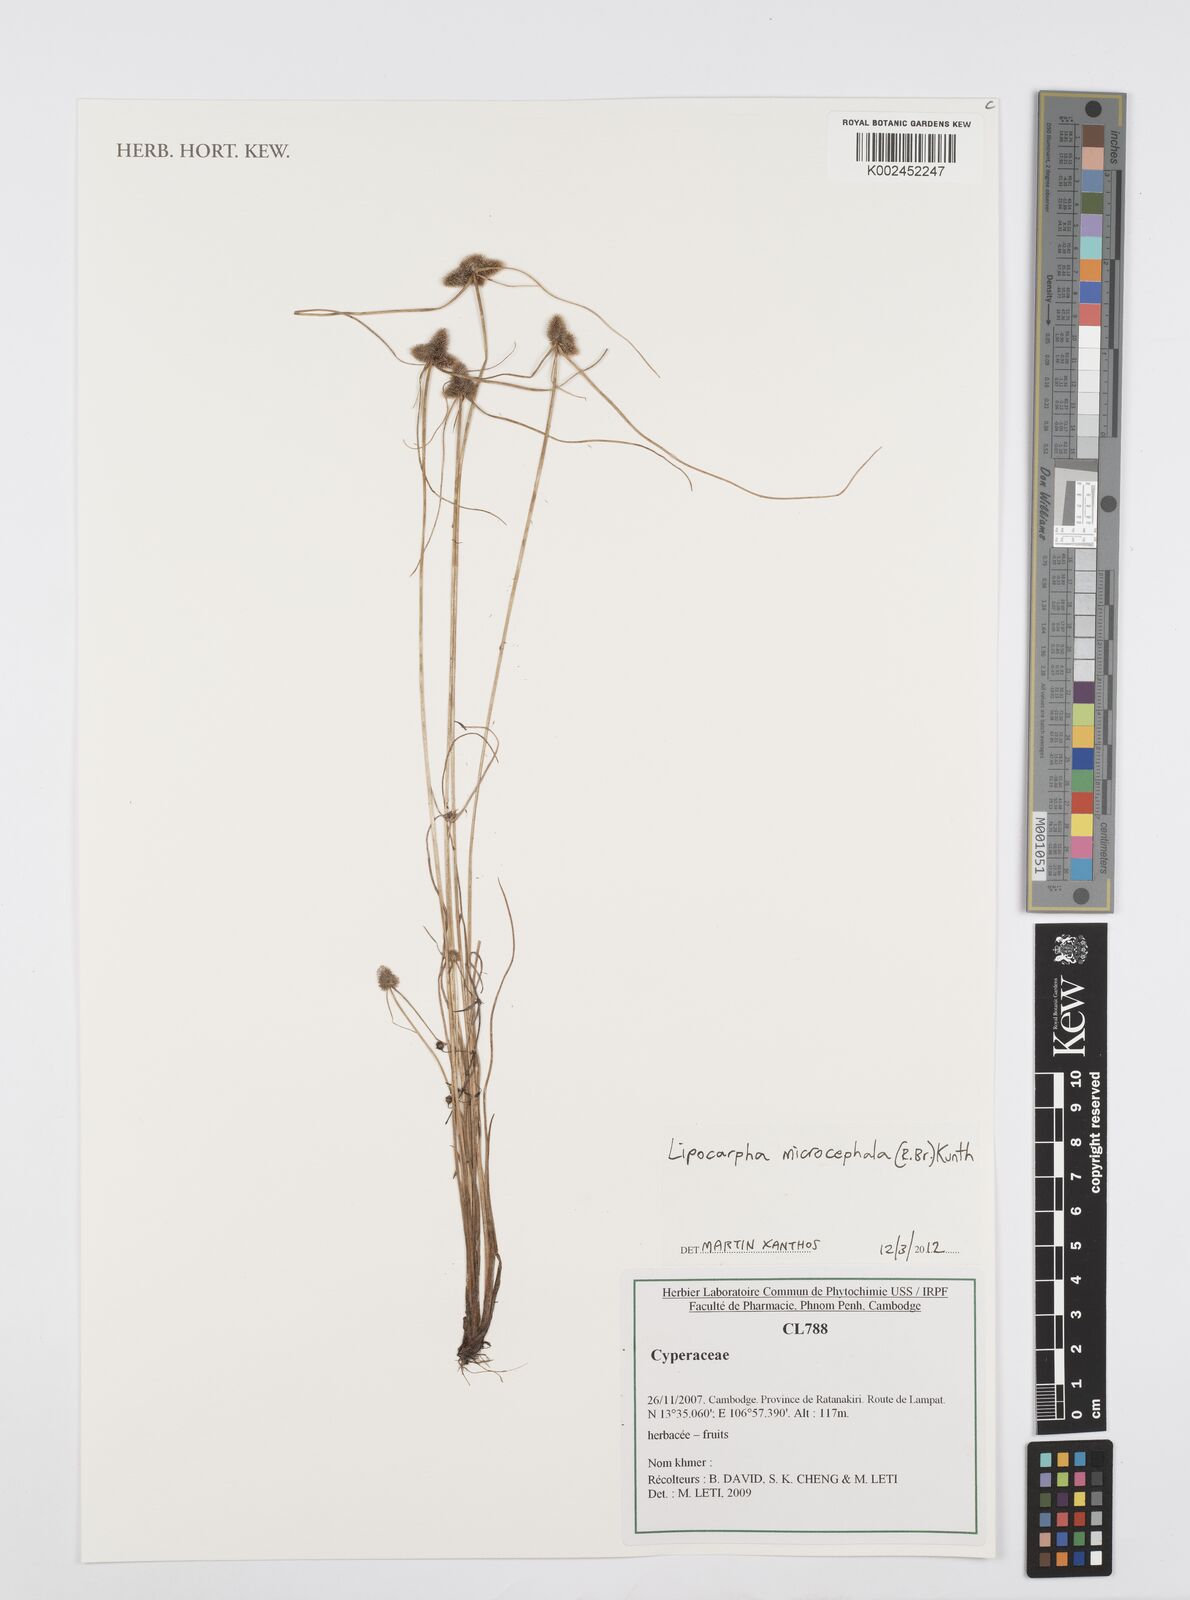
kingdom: Plantae
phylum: Tracheophyta
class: Liliopsida
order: Poales
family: Cyperaceae
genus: Cyperus
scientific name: Cyperus microcephalus
